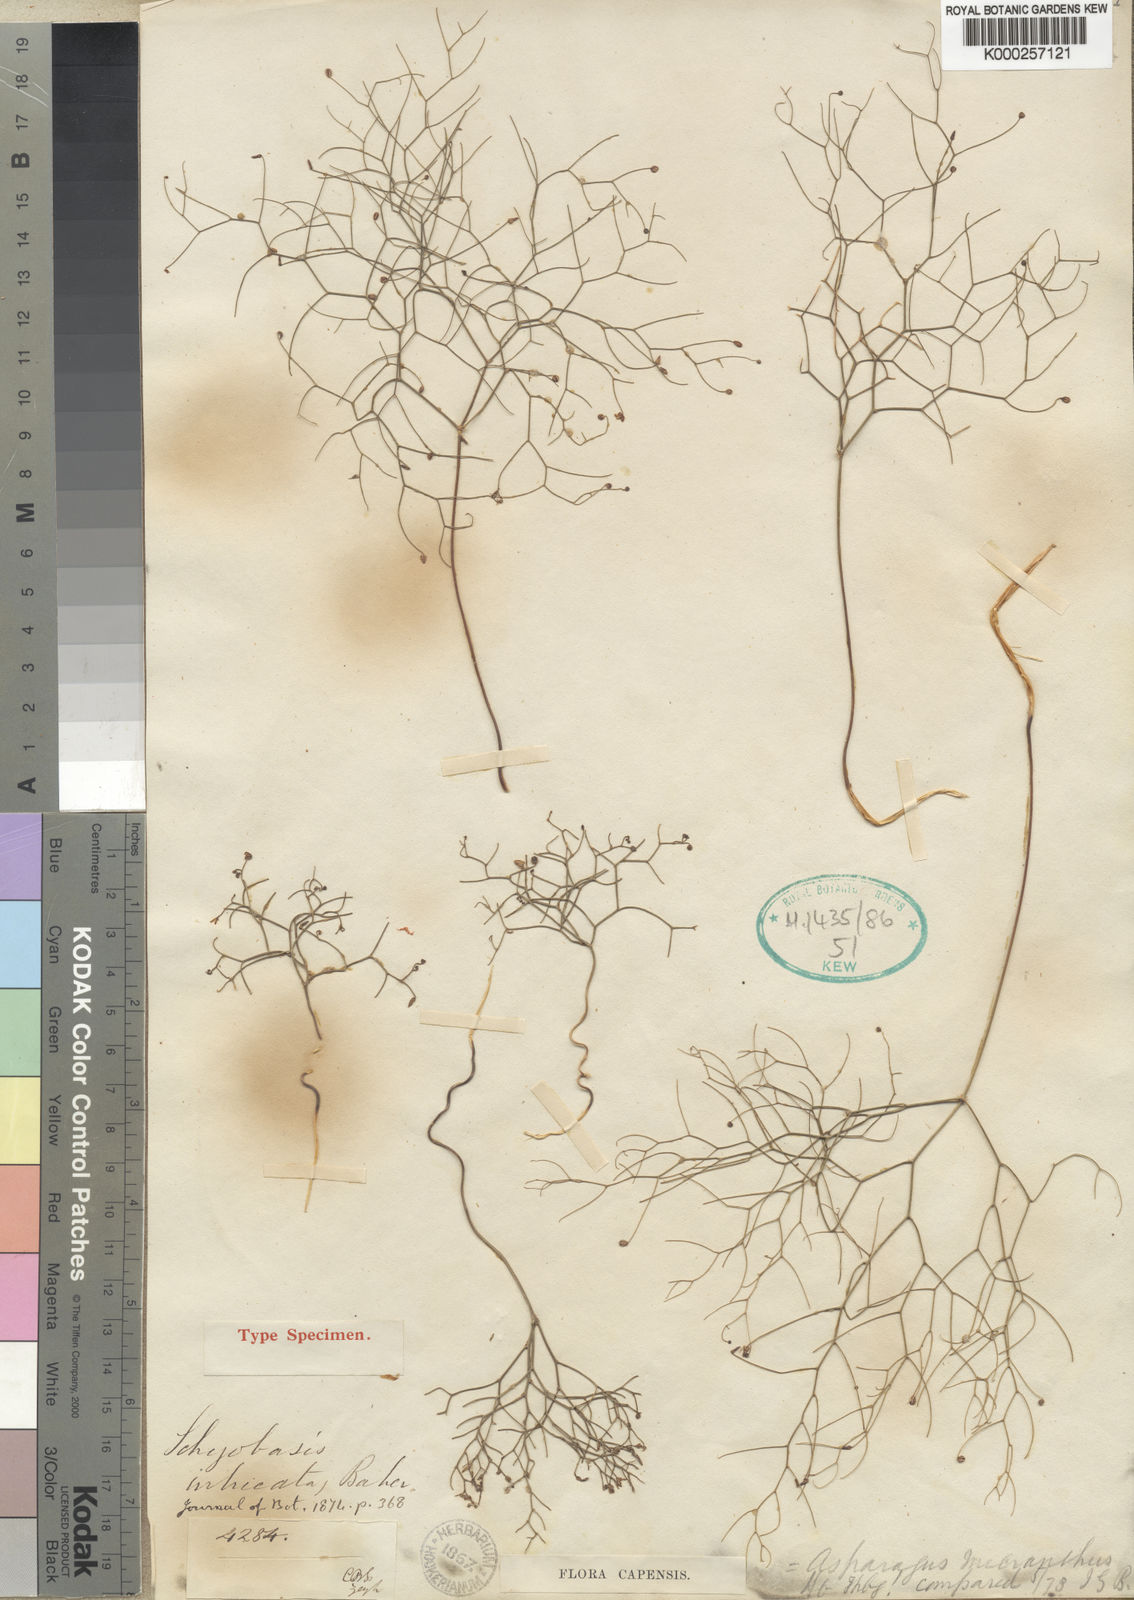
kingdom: Plantae
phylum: Tracheophyta
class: Liliopsida
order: Asparagales
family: Asparagaceae
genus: Drimia
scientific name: Drimia intricata
